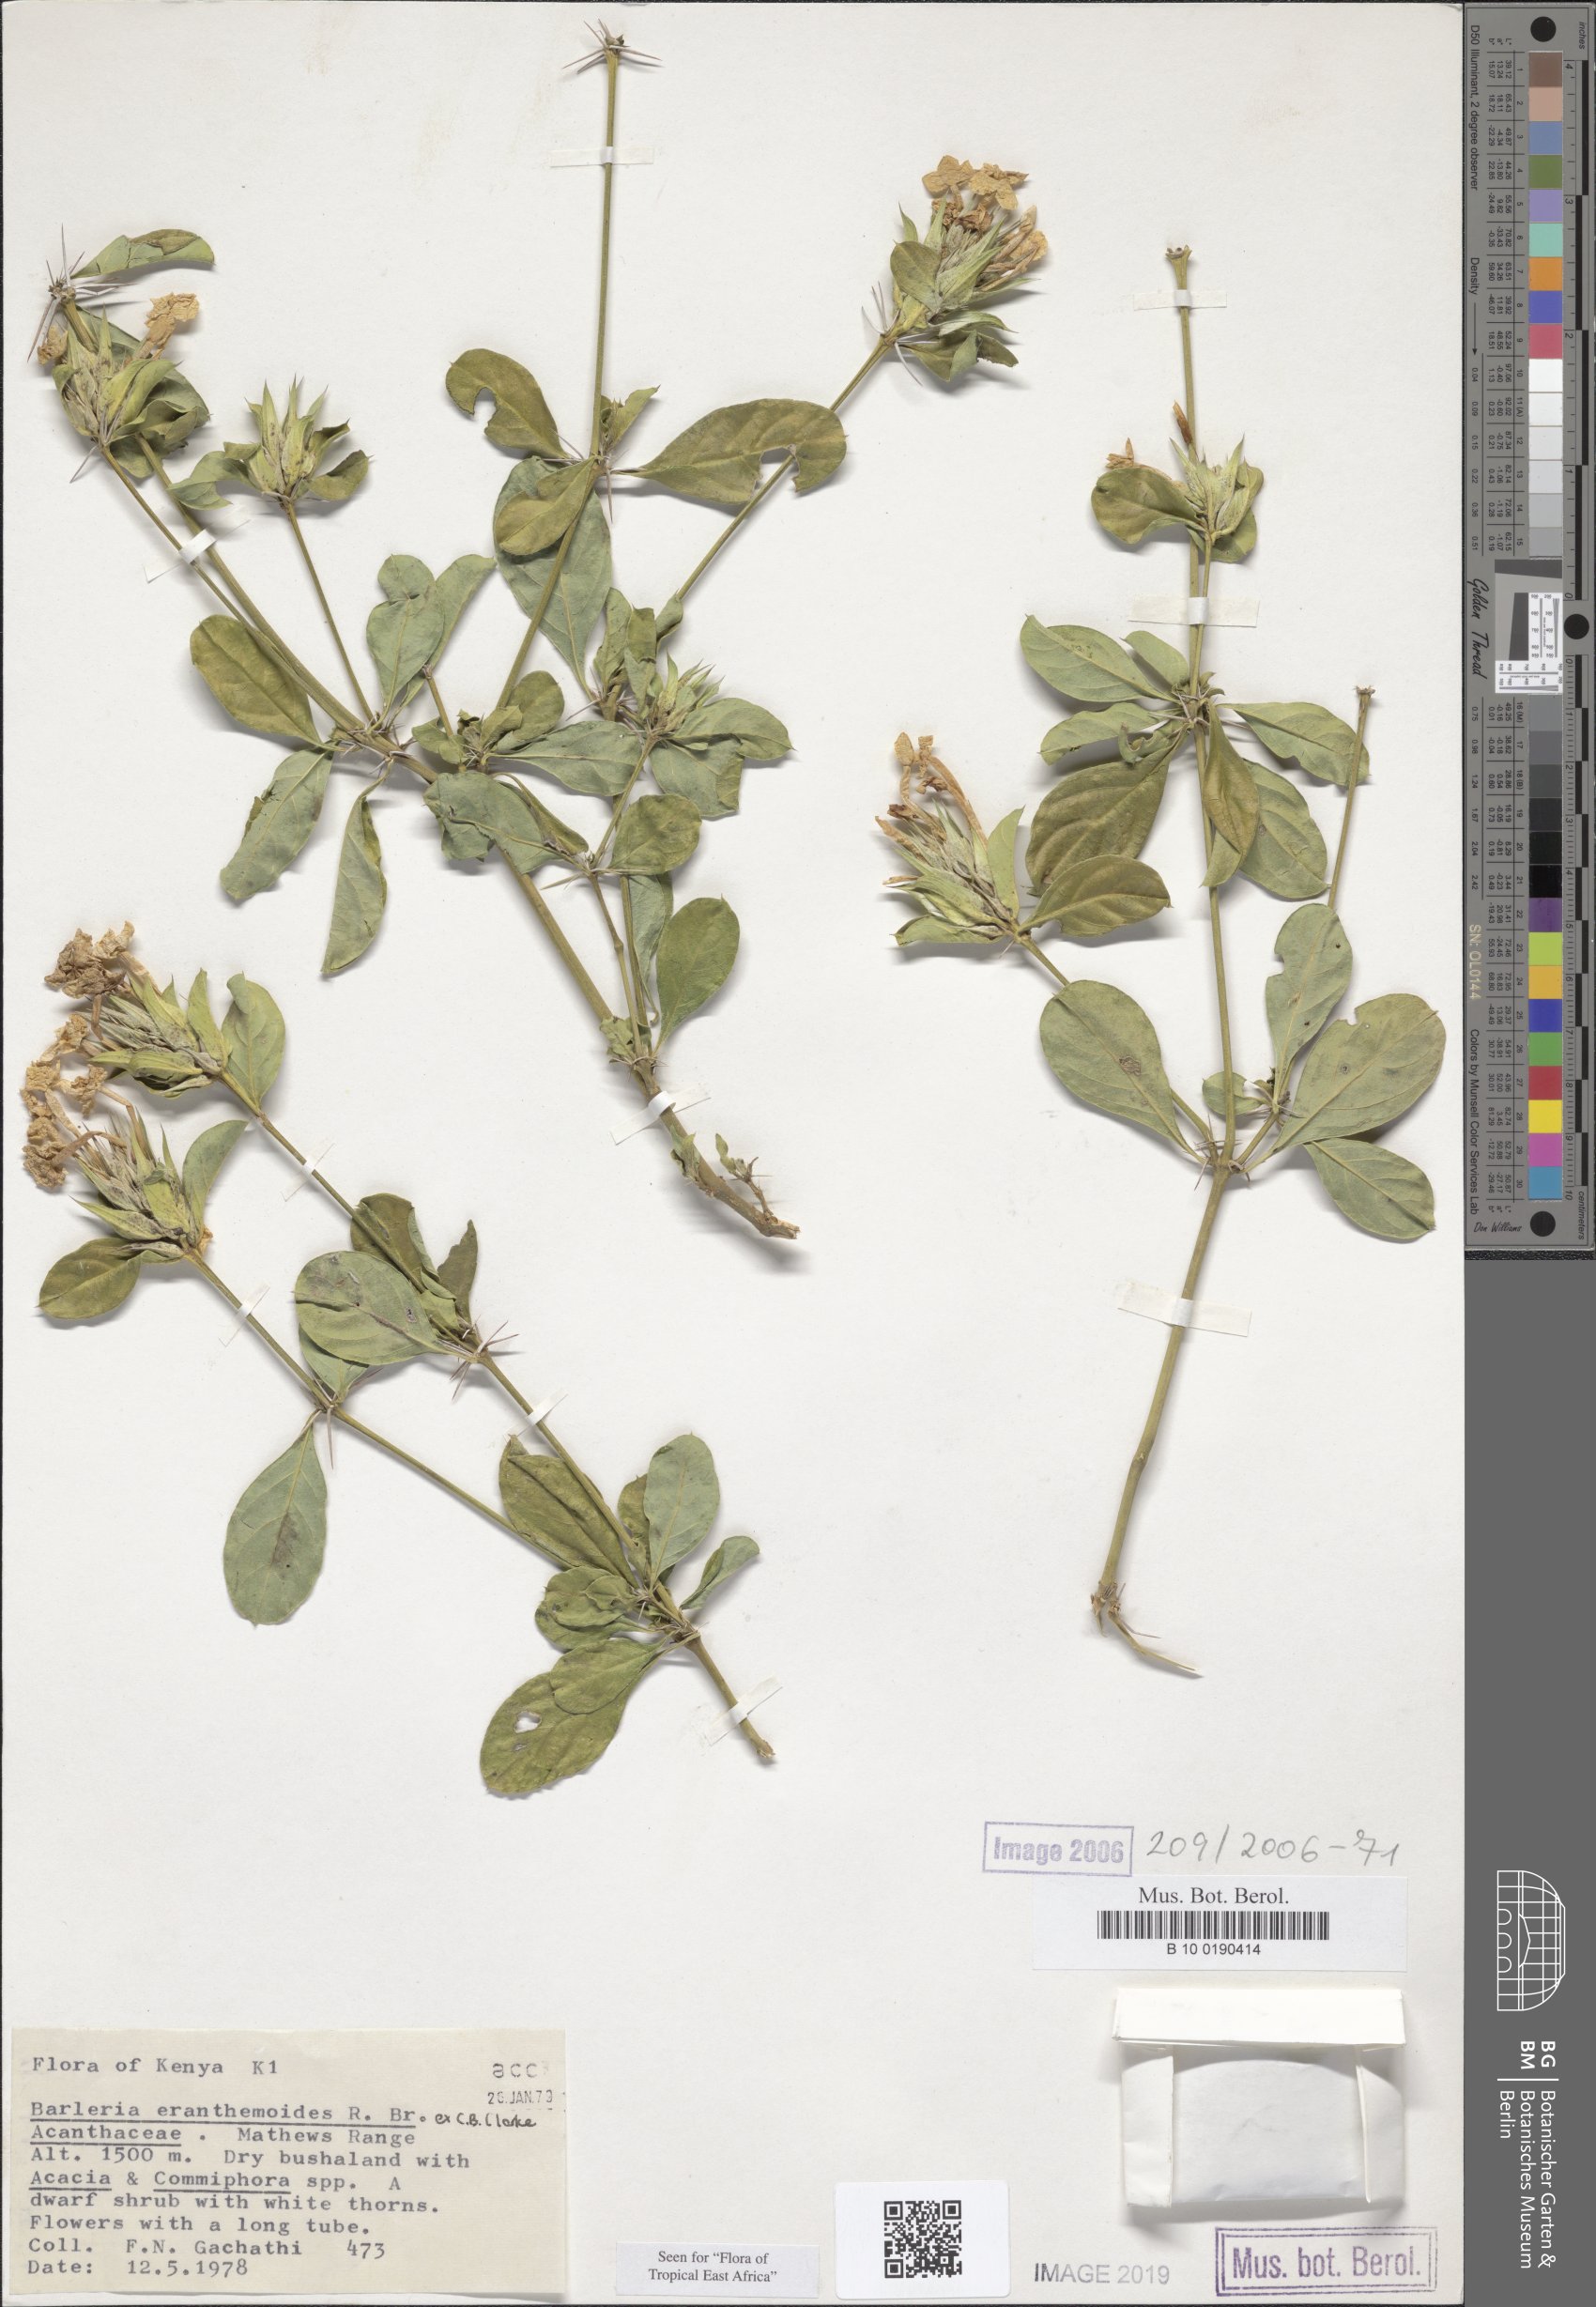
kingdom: Plantae
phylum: Tracheophyta
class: Magnoliopsida
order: Lamiales
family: Acanthaceae
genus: Barleria
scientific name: Barleria eranthemoides
